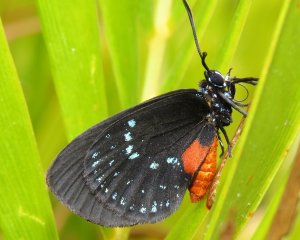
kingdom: Animalia
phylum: Arthropoda
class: Insecta
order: Lepidoptera
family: Lycaenidae
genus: Eumaeus
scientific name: Eumaeus atala
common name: Atala
